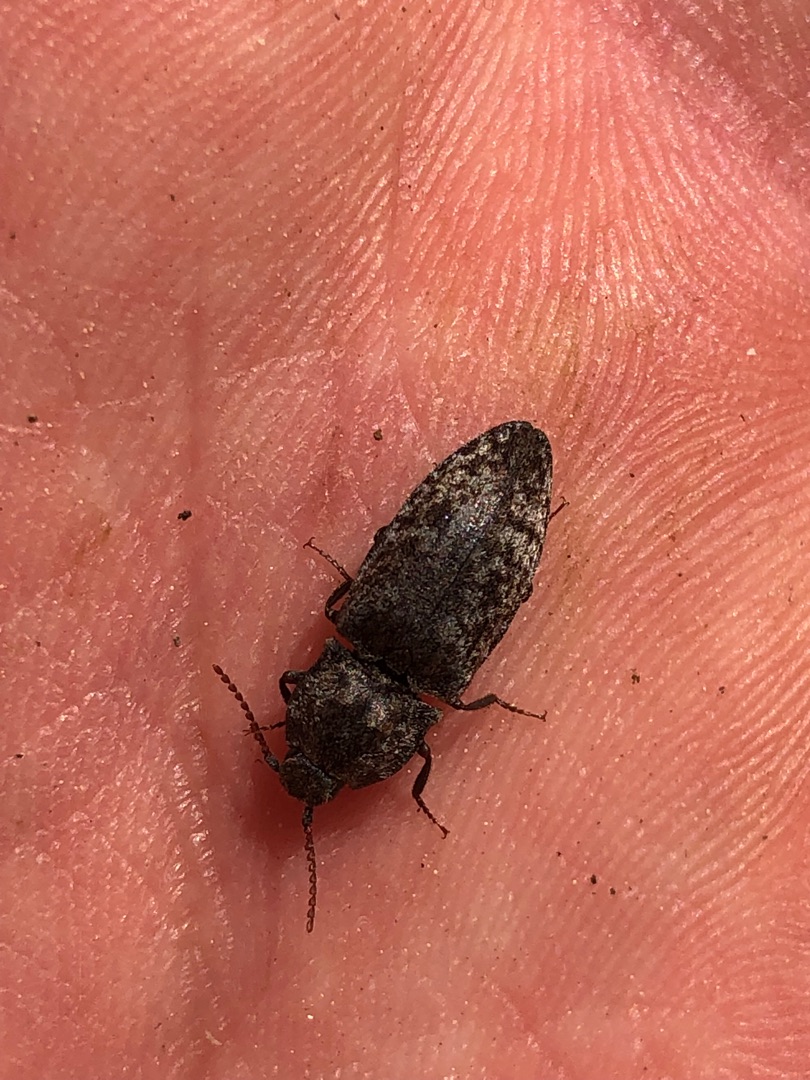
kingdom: Animalia
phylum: Arthropoda
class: Insecta
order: Coleoptera
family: Elateridae
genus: Agrypnus
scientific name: Agrypnus murinus
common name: Musegrå smælder
